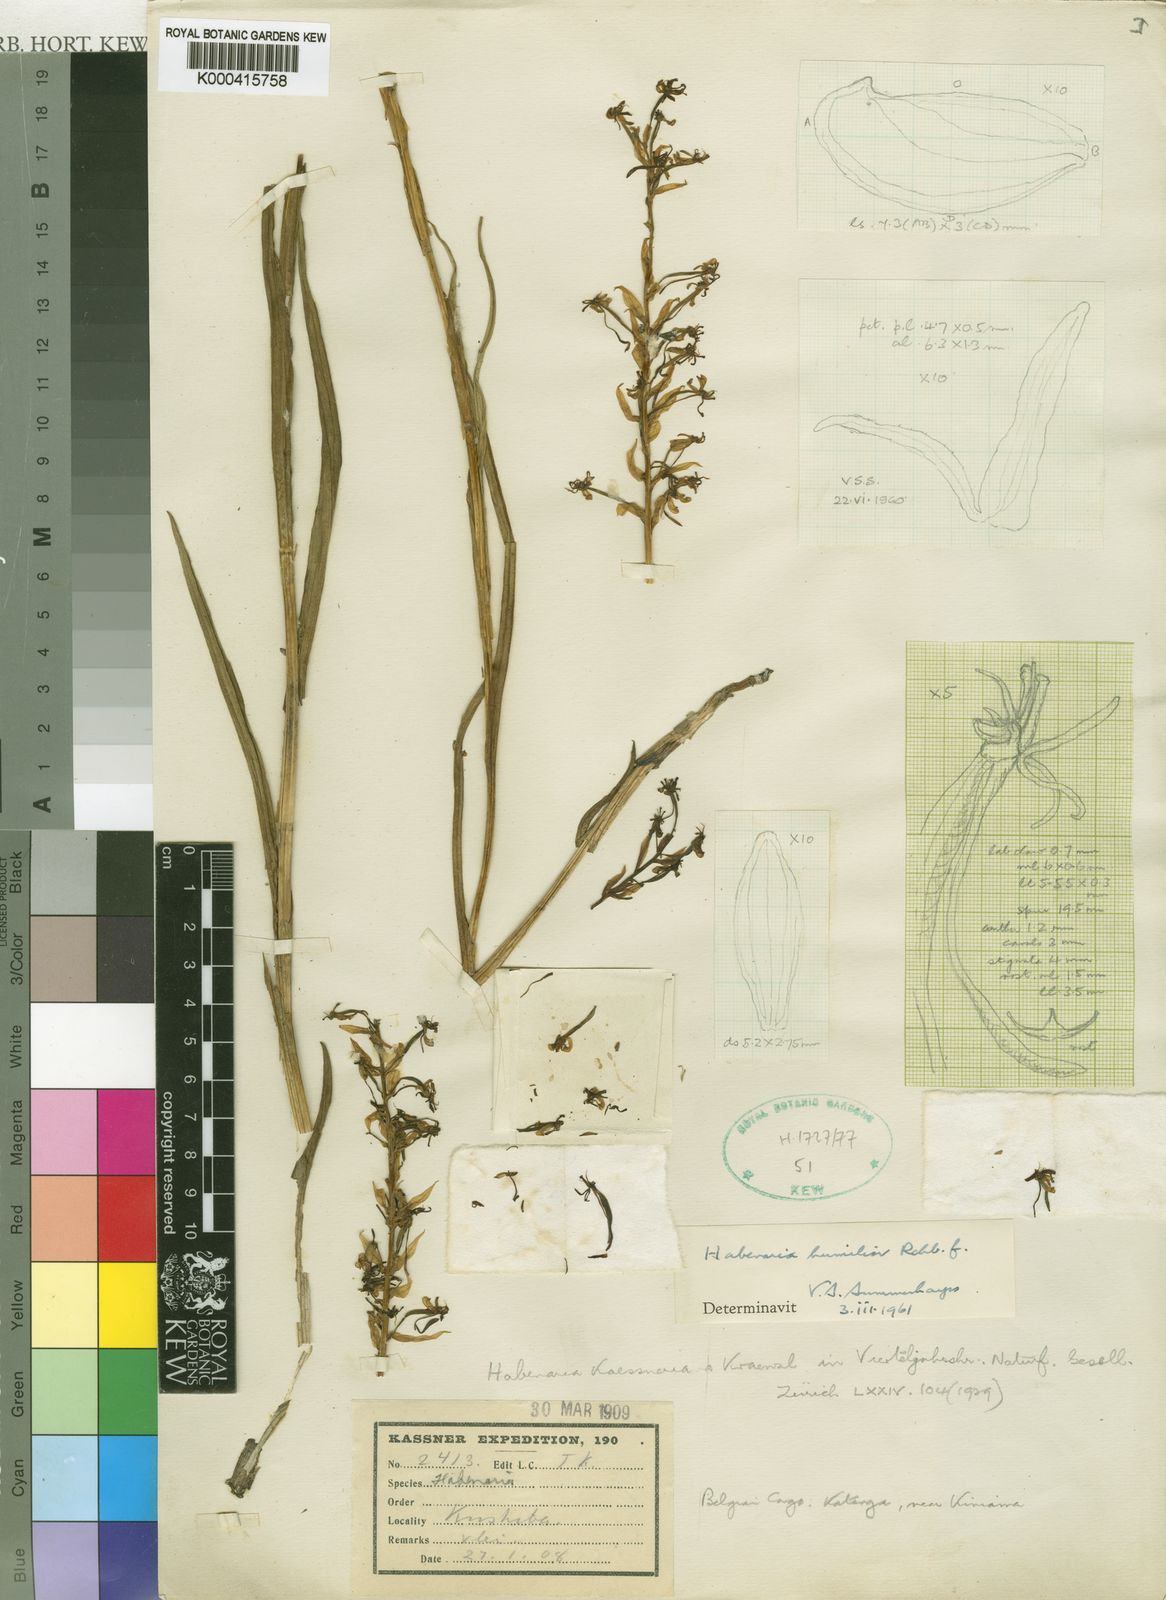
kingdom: Plantae
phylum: Tracheophyta
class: Liliopsida
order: Asparagales
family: Orchidaceae
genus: Habenaria
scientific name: Habenaria humilior
